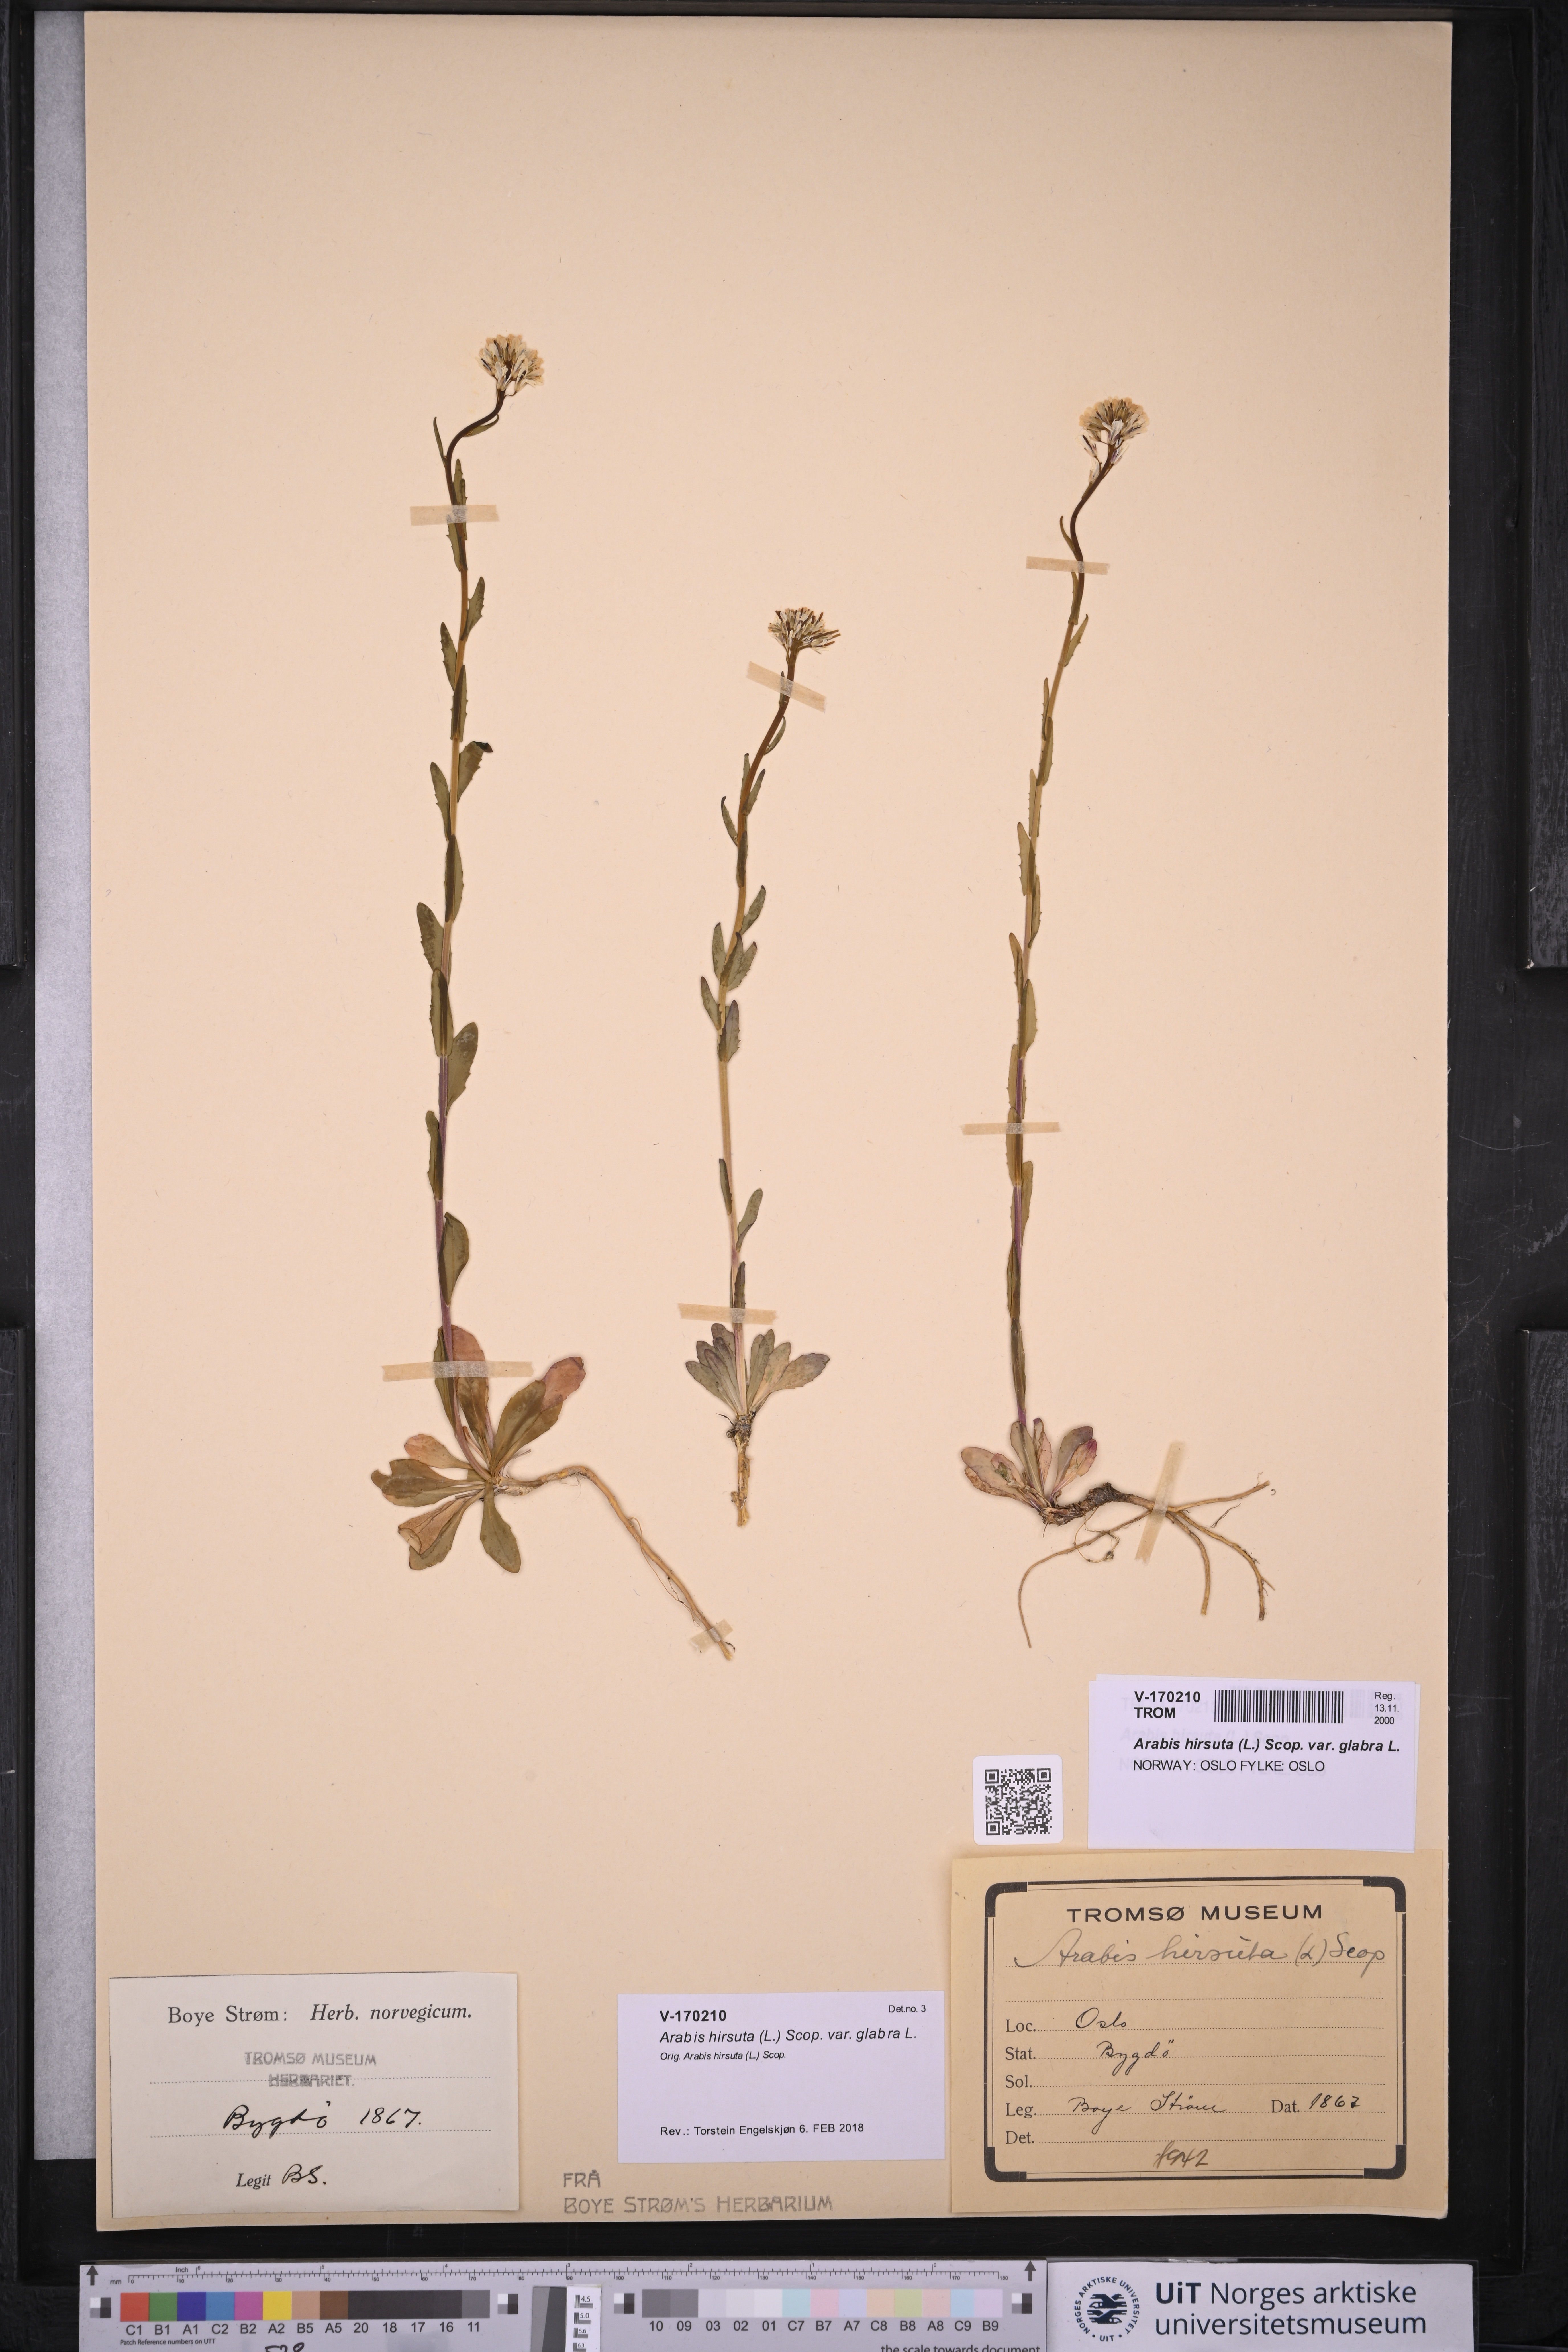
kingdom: Plantae
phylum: Tracheophyta
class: Magnoliopsida
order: Brassicales
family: Brassicaceae
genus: Arabis
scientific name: Arabis hirsuta
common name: Hairy rock-cress
